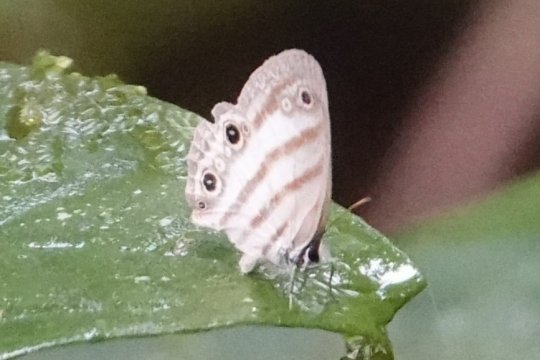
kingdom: Animalia
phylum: Arthropoda
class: Insecta
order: Lepidoptera
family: Nymphalidae
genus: Euptychia
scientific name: Euptychia mollina
